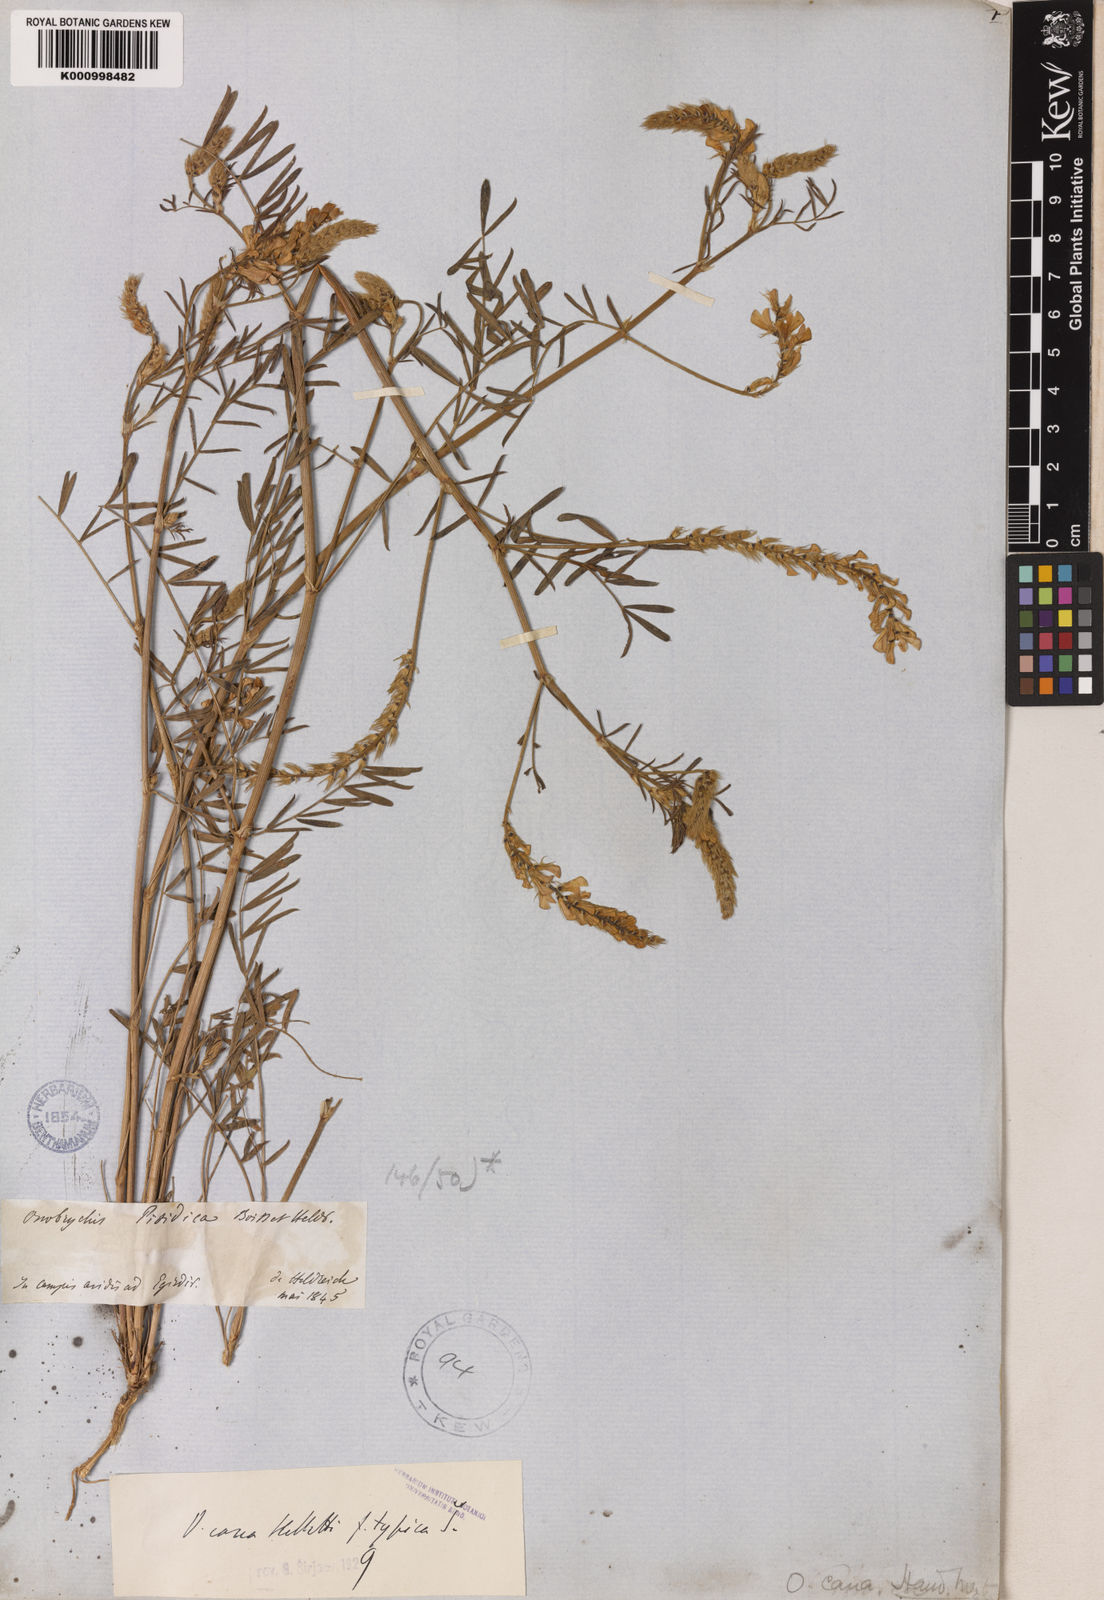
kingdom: Plantae
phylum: Tracheophyta
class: Magnoliopsida
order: Fabales
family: Fabaceae
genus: Onobrychis
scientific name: Onobrychis arenaria
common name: Sand esparcet
